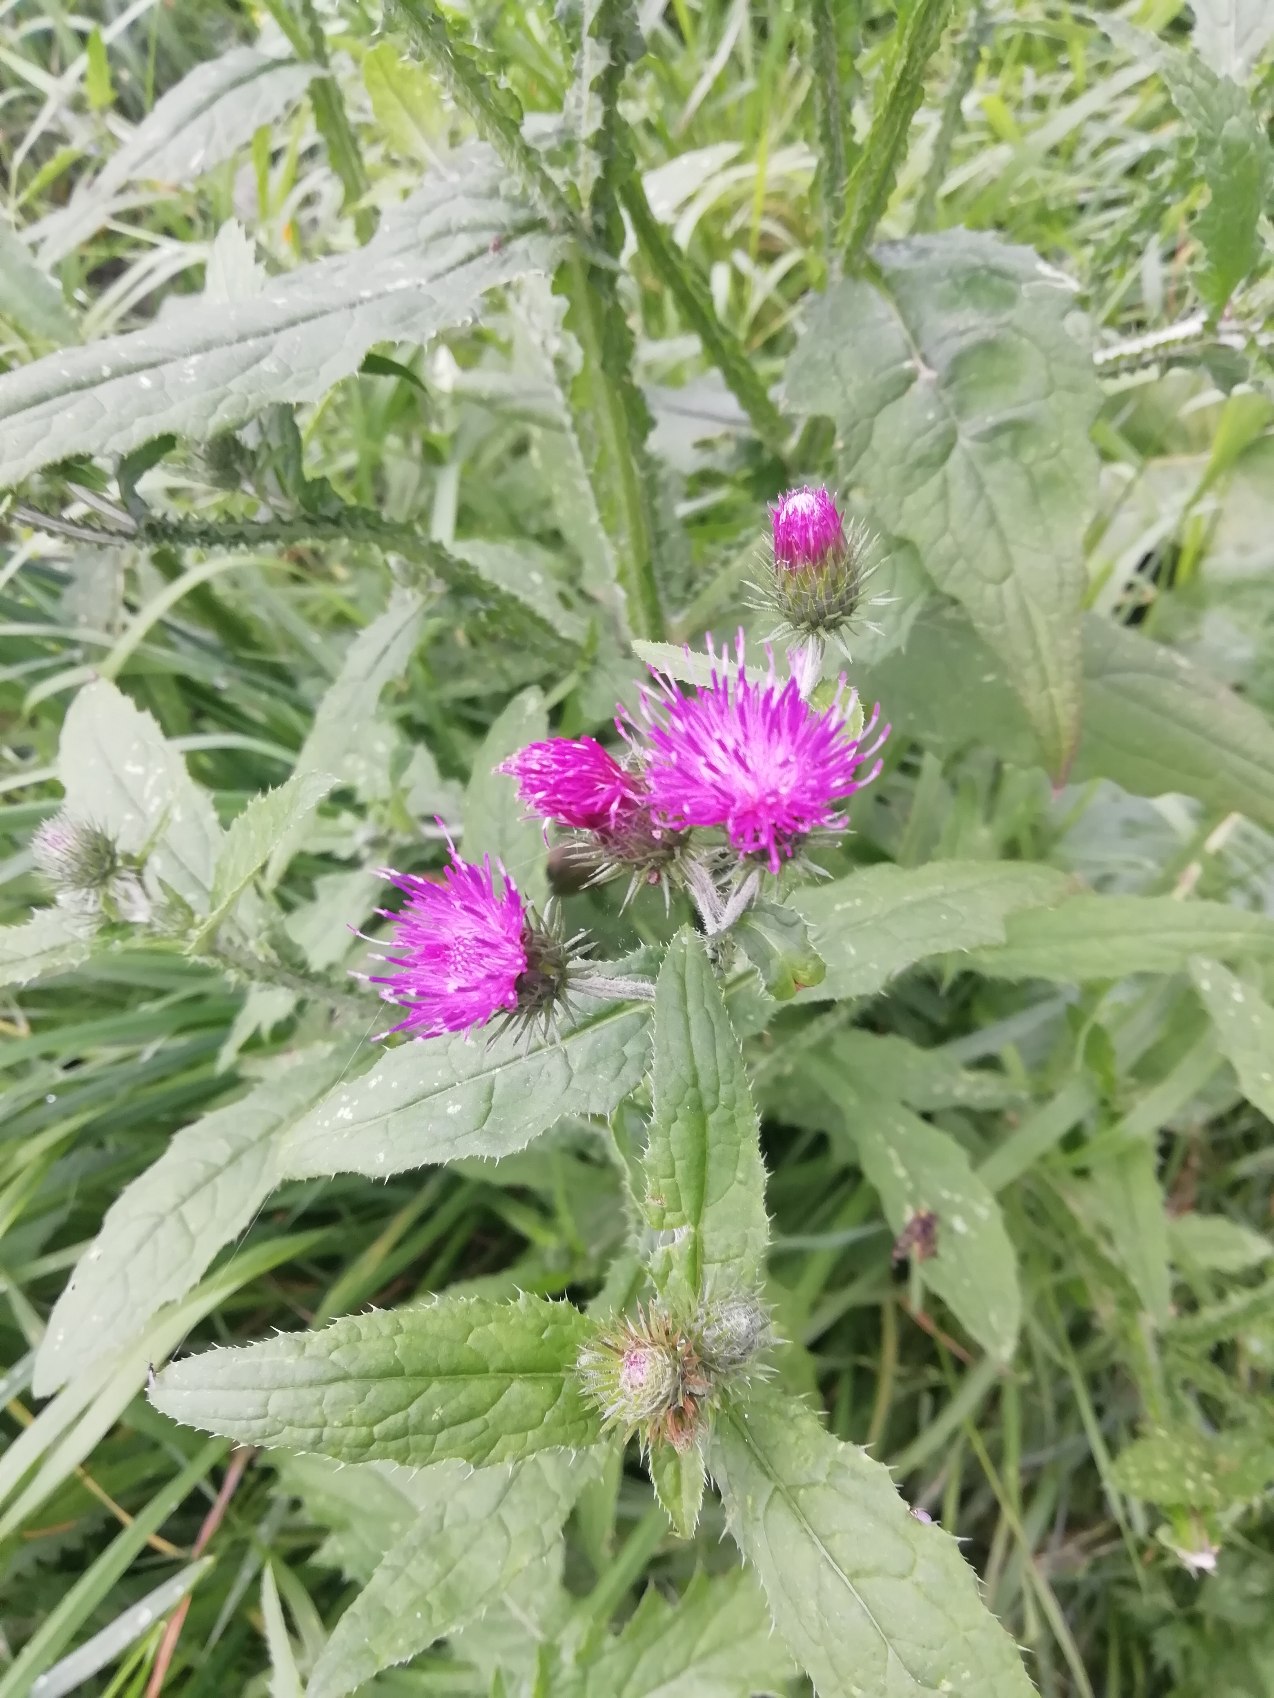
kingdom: Plantae
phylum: Tracheophyta
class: Magnoliopsida
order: Asterales
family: Asteraceae
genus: Carduus
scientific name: Carduus crispus
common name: Kruset tidsel
